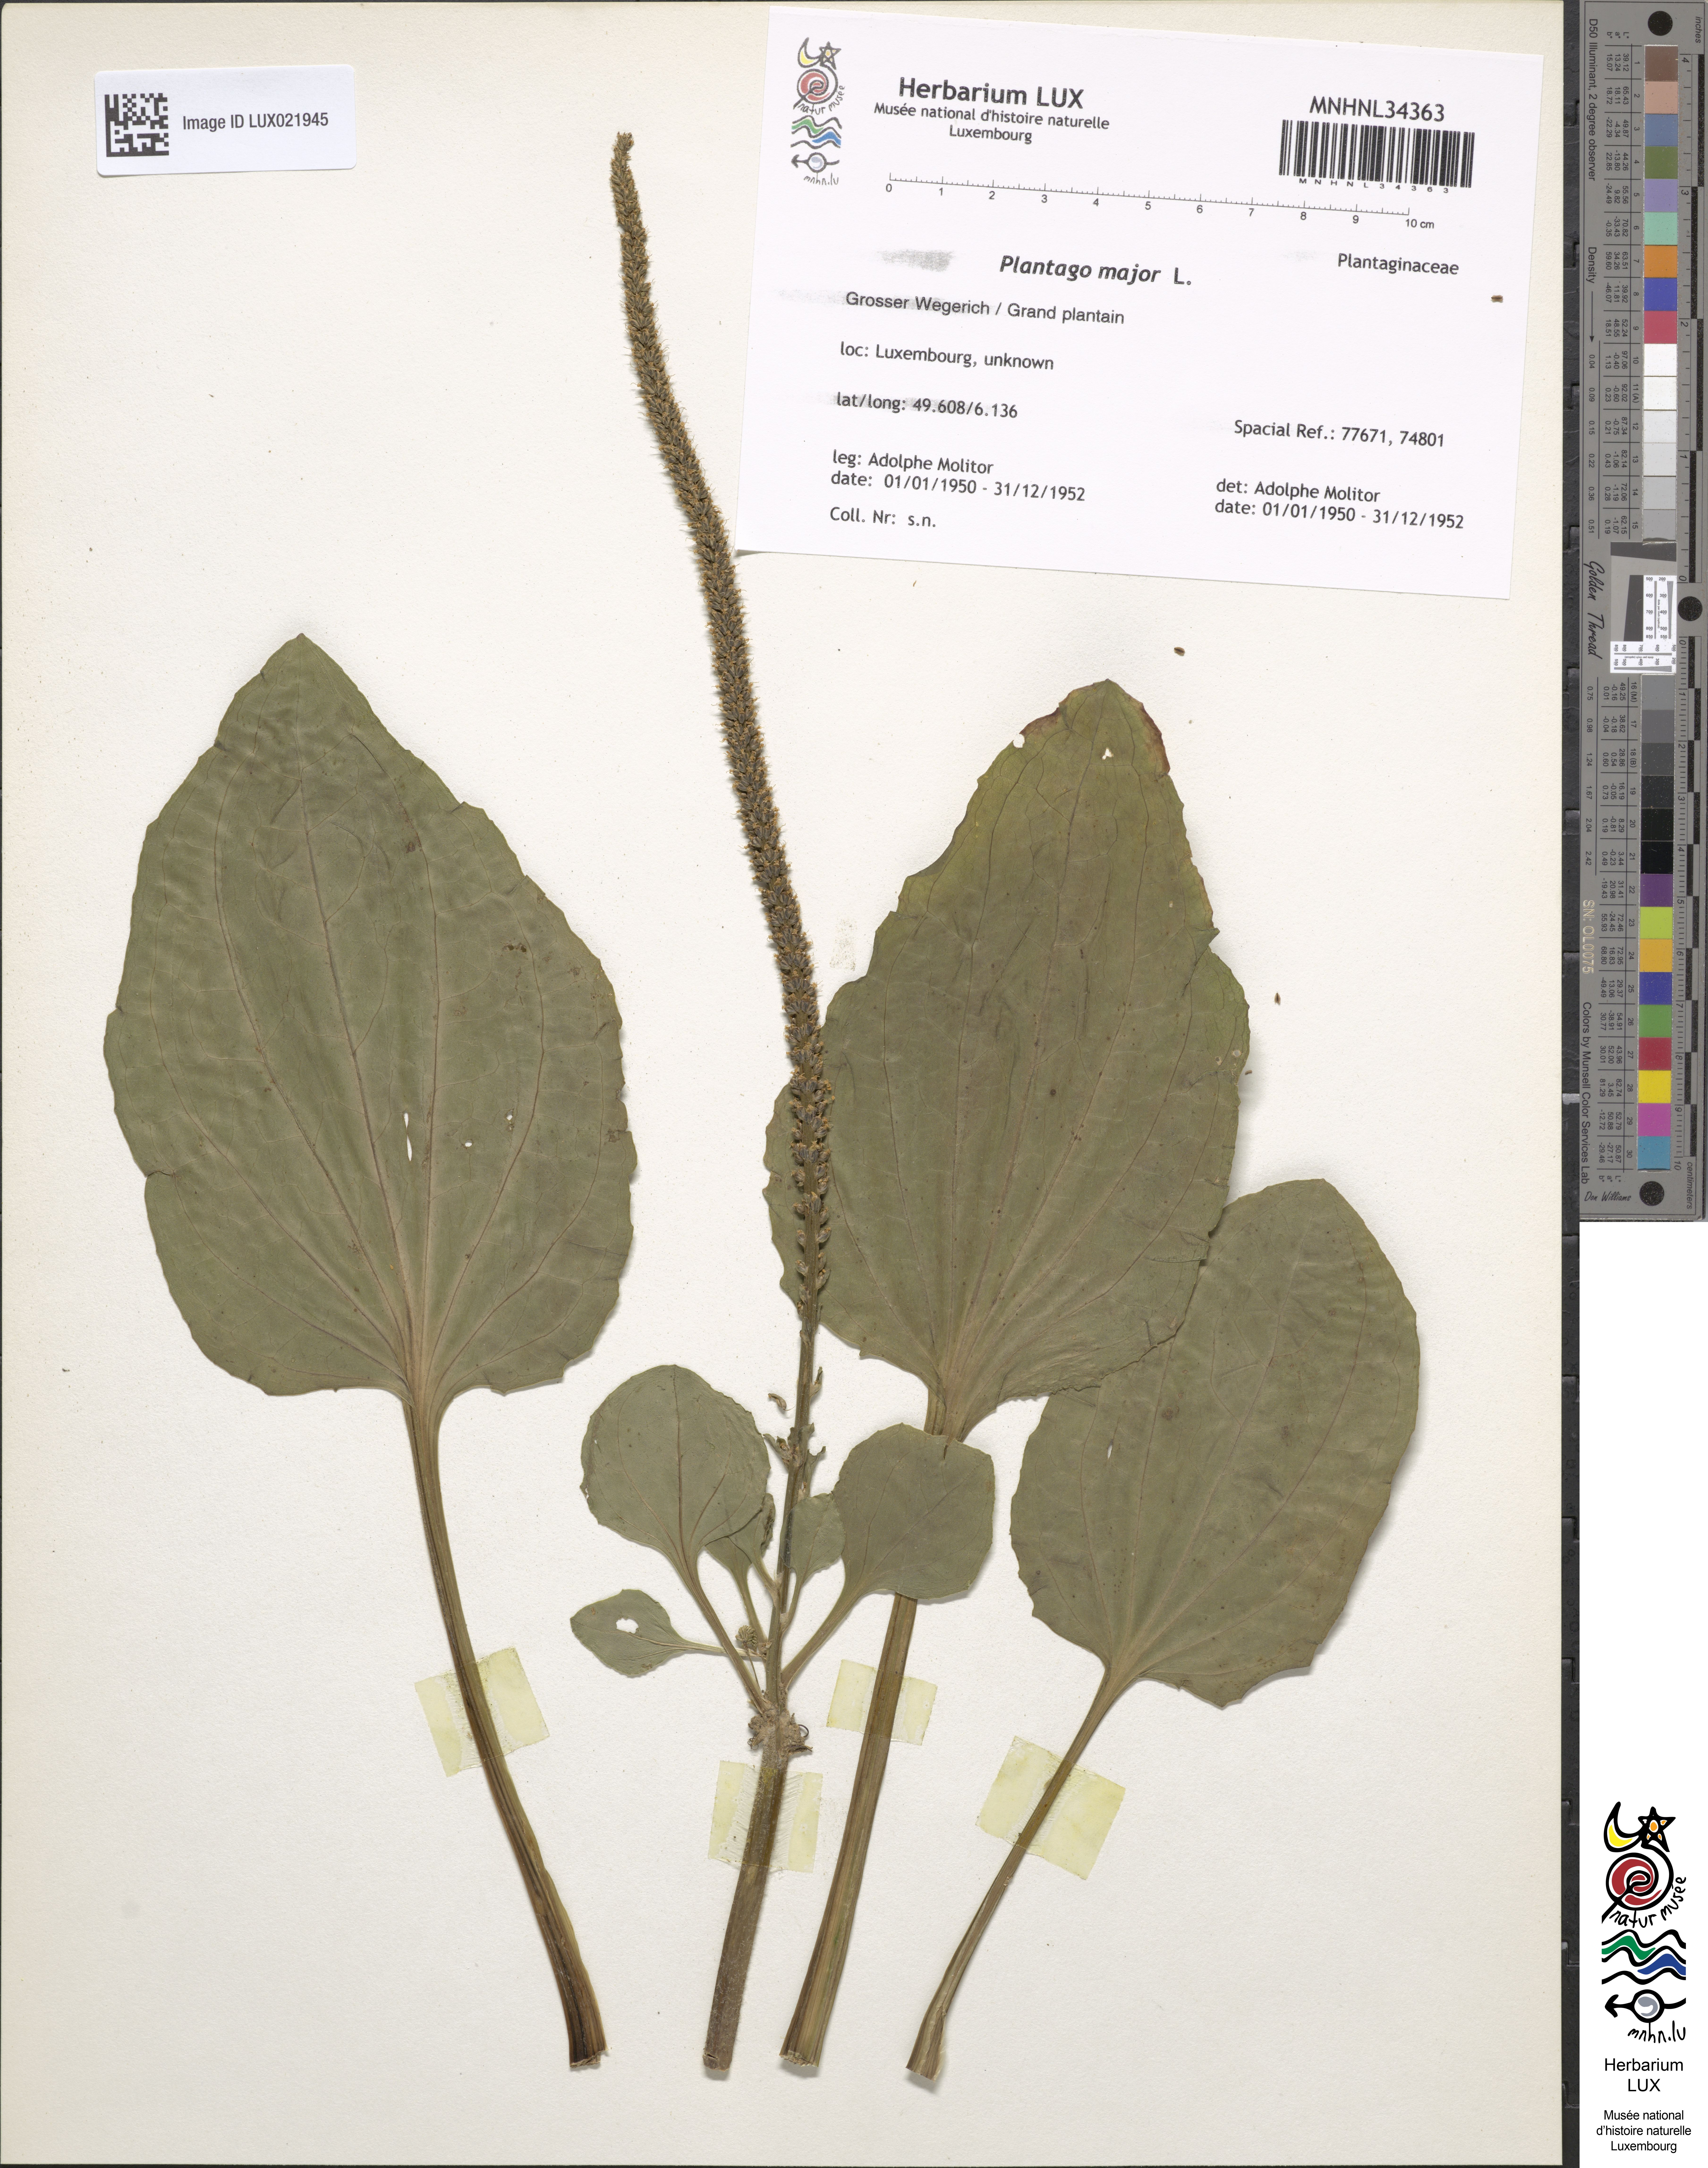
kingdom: Plantae
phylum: Tracheophyta
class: Magnoliopsida
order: Lamiales
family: Plantaginaceae
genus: Plantago
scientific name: Plantago media
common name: Hoary plantain
